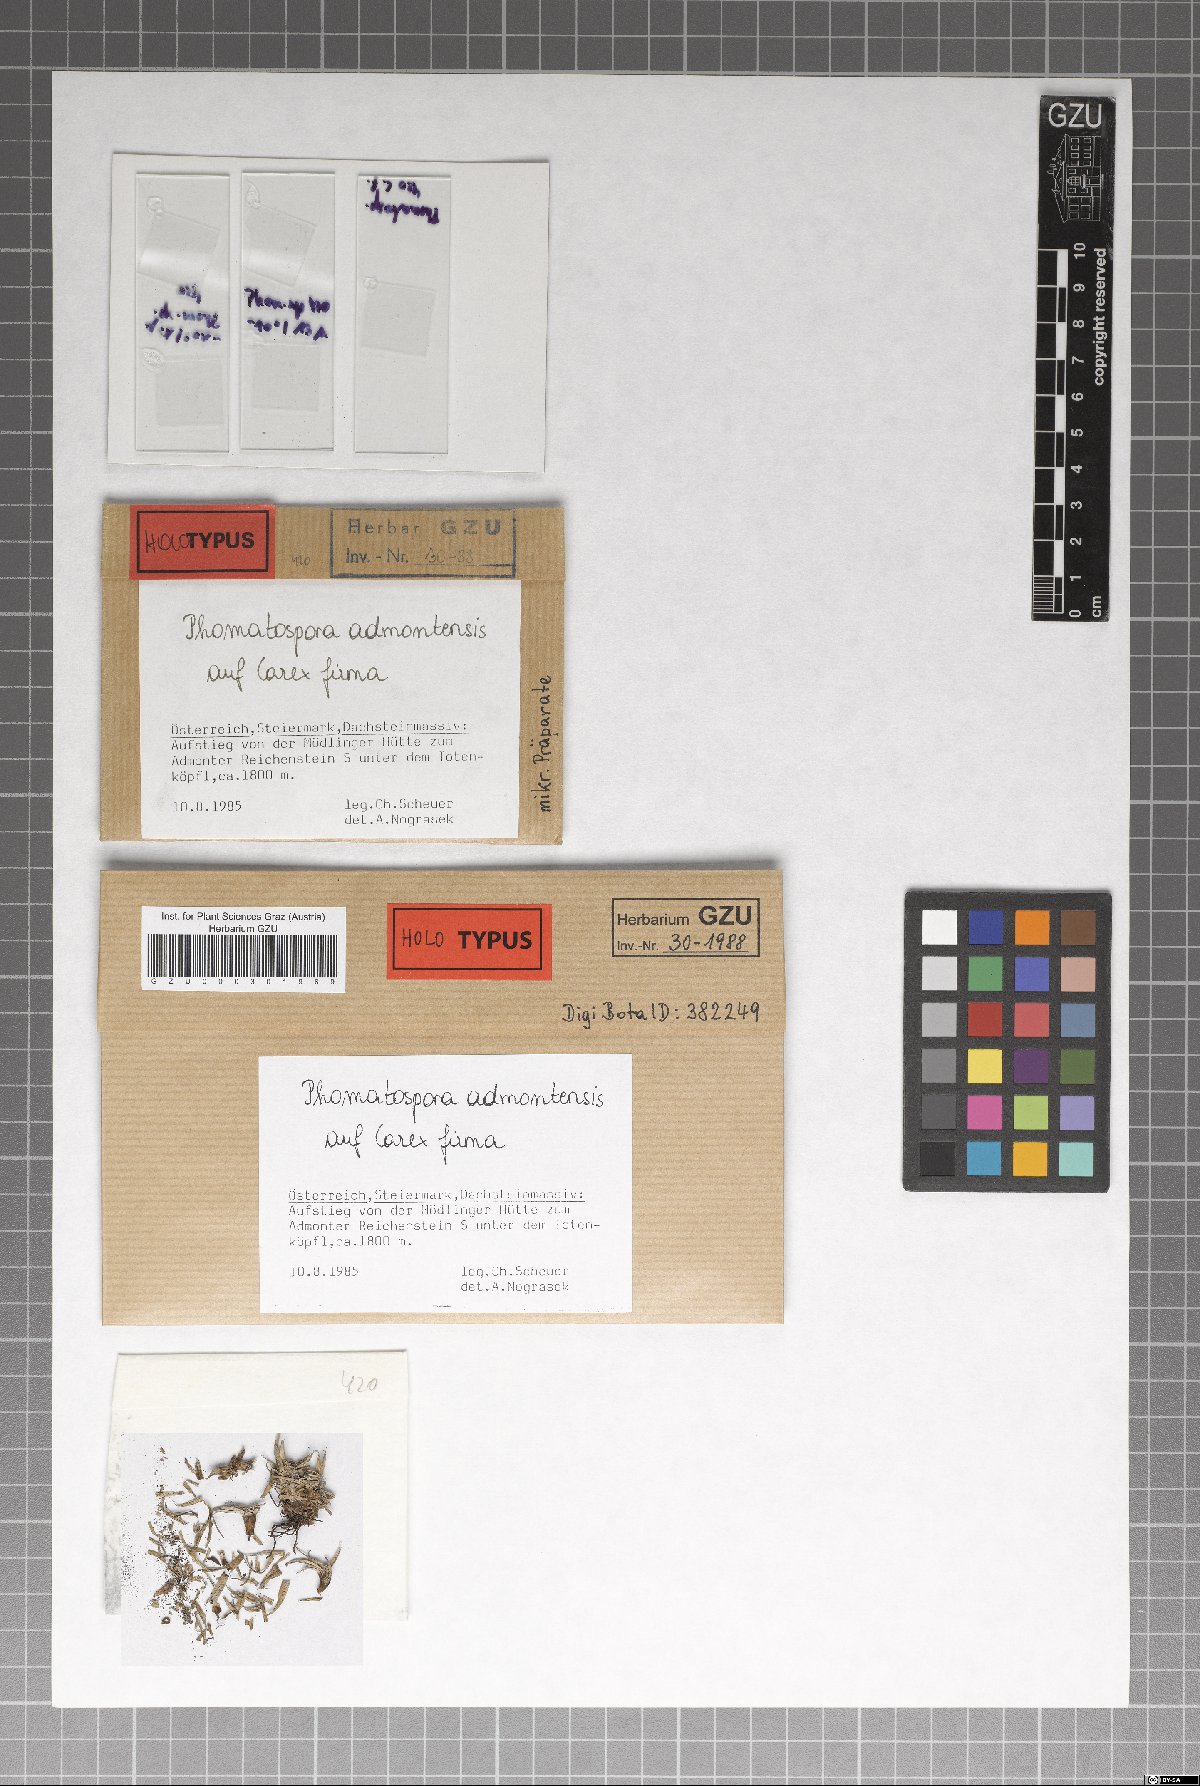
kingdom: Fungi
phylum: Ascomycota
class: Sordariomycetes
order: Phomatosporales
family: Phomatosporaceae
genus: Phomatospora
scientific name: Phomatospora admontensis
